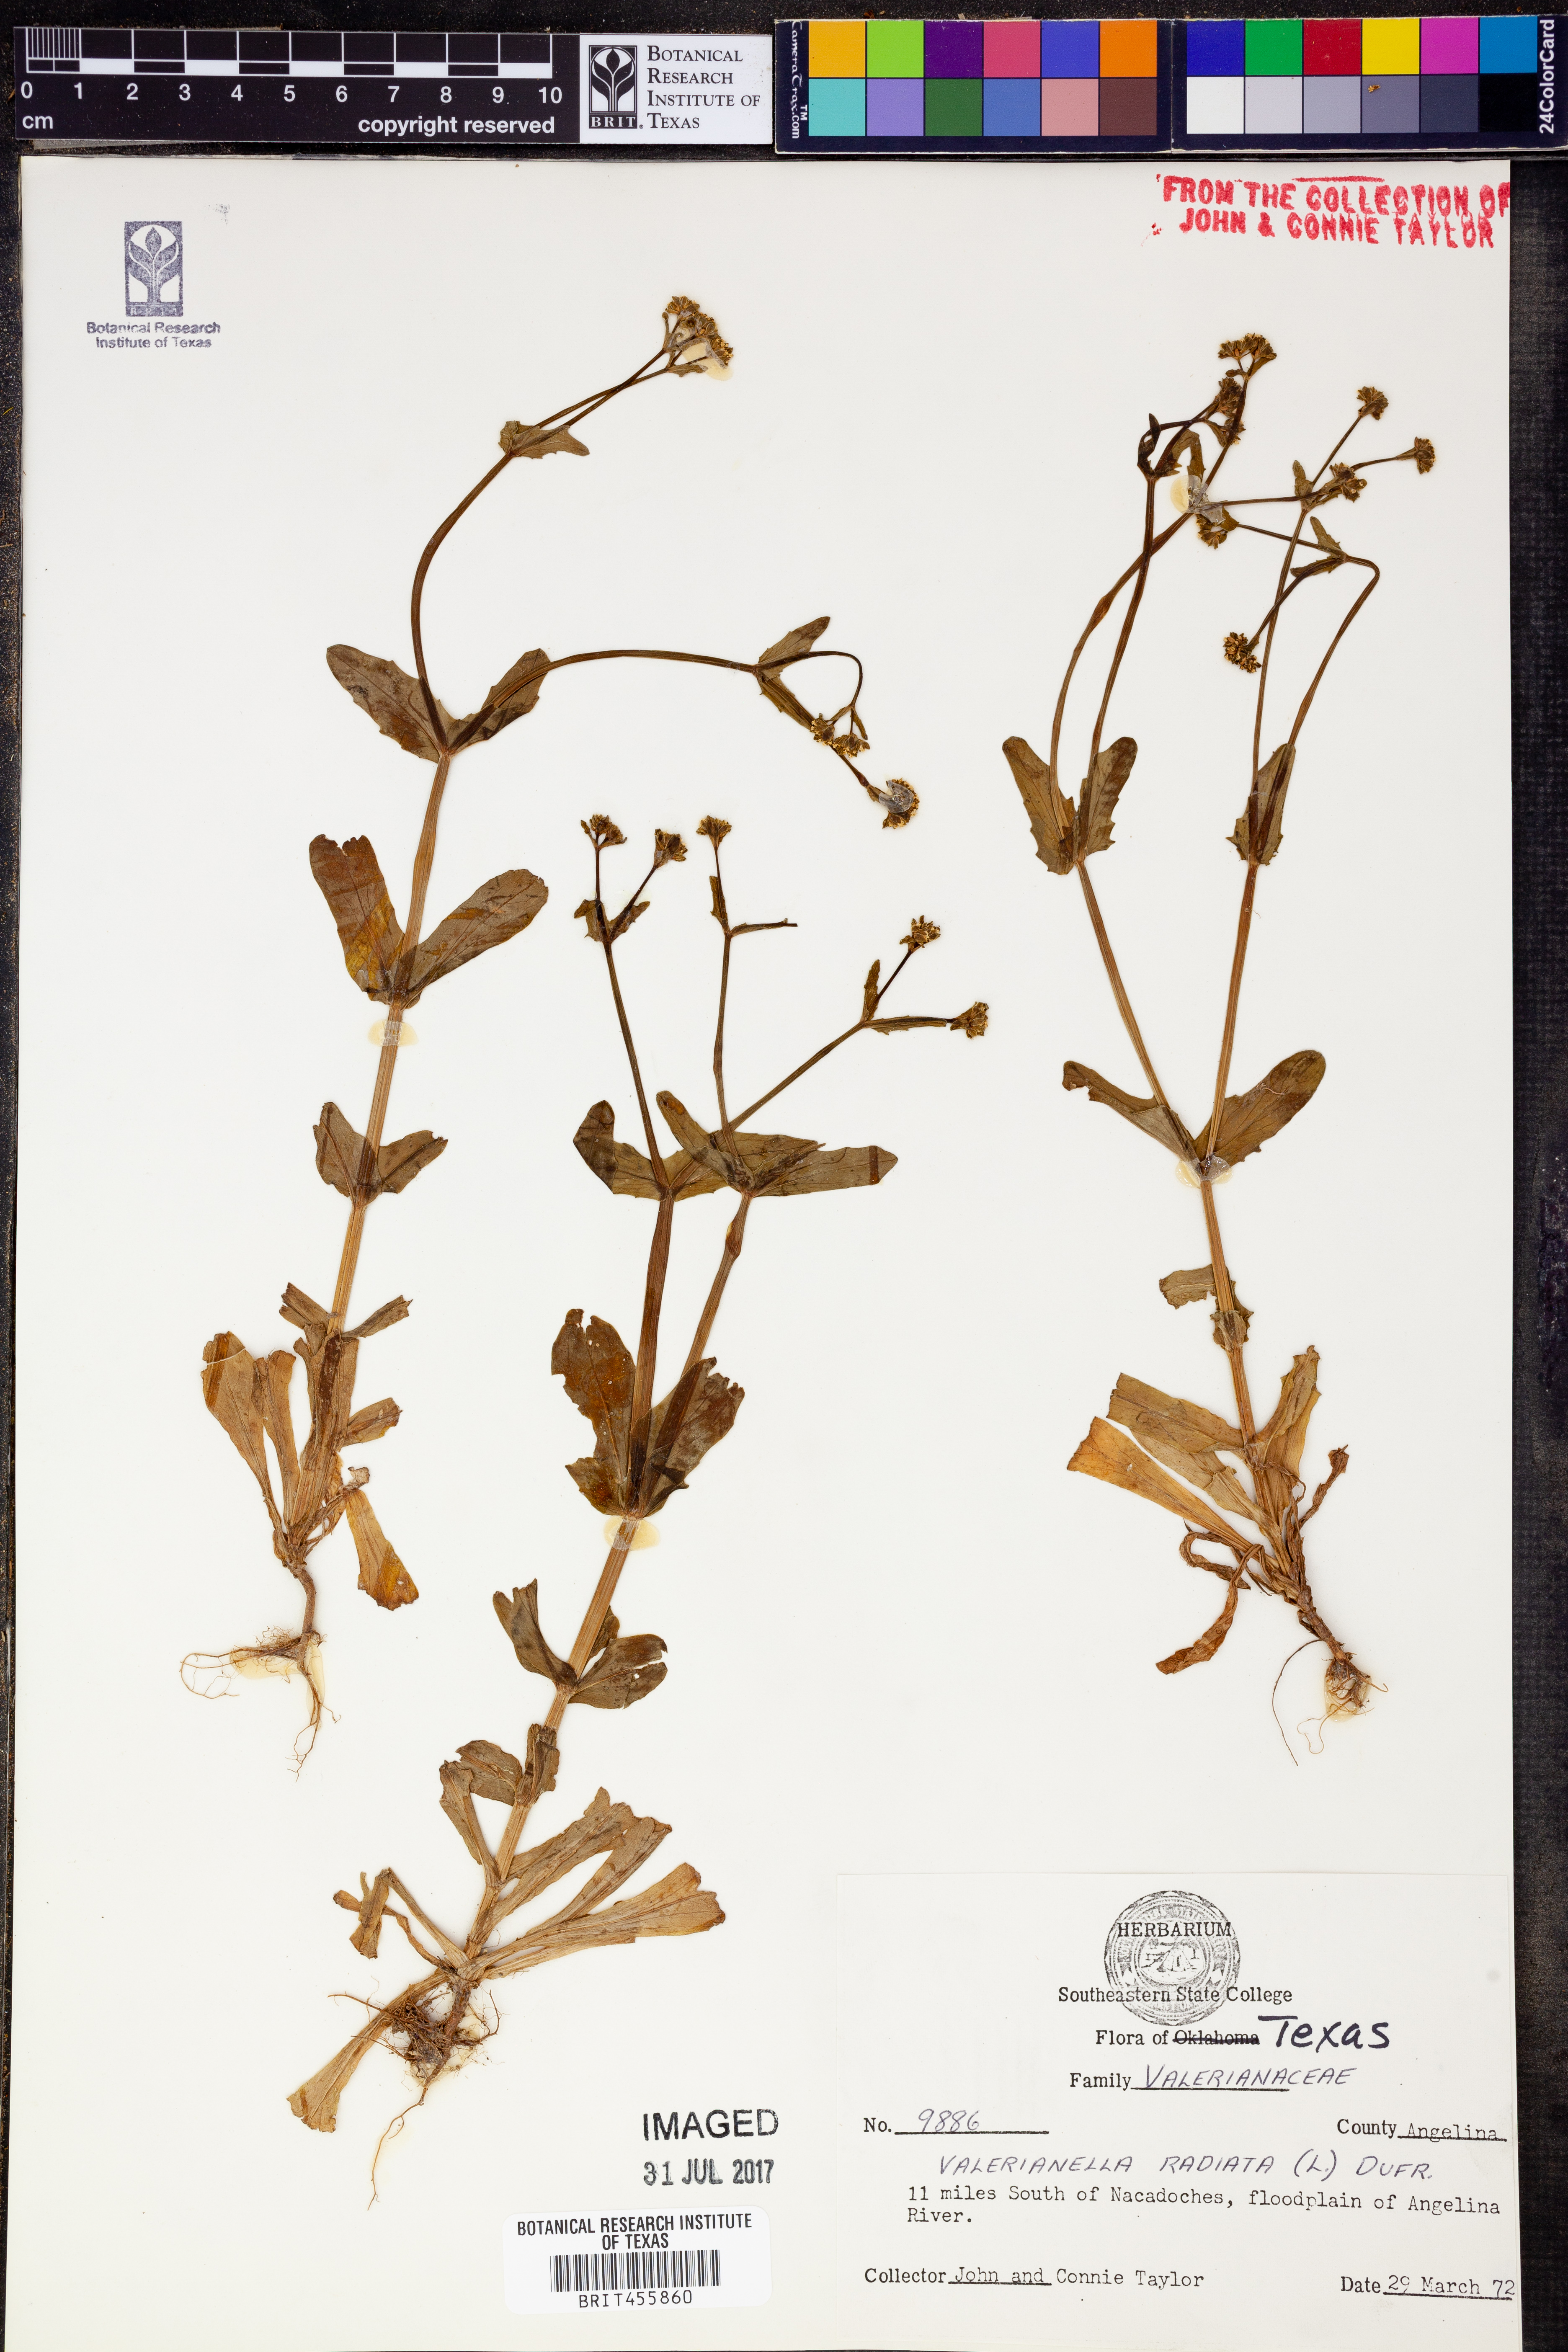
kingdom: Plantae
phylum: Tracheophyta
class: Magnoliopsida
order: Dipsacales
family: Caprifoliaceae
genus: Valerianella
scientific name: Valerianella radiata
